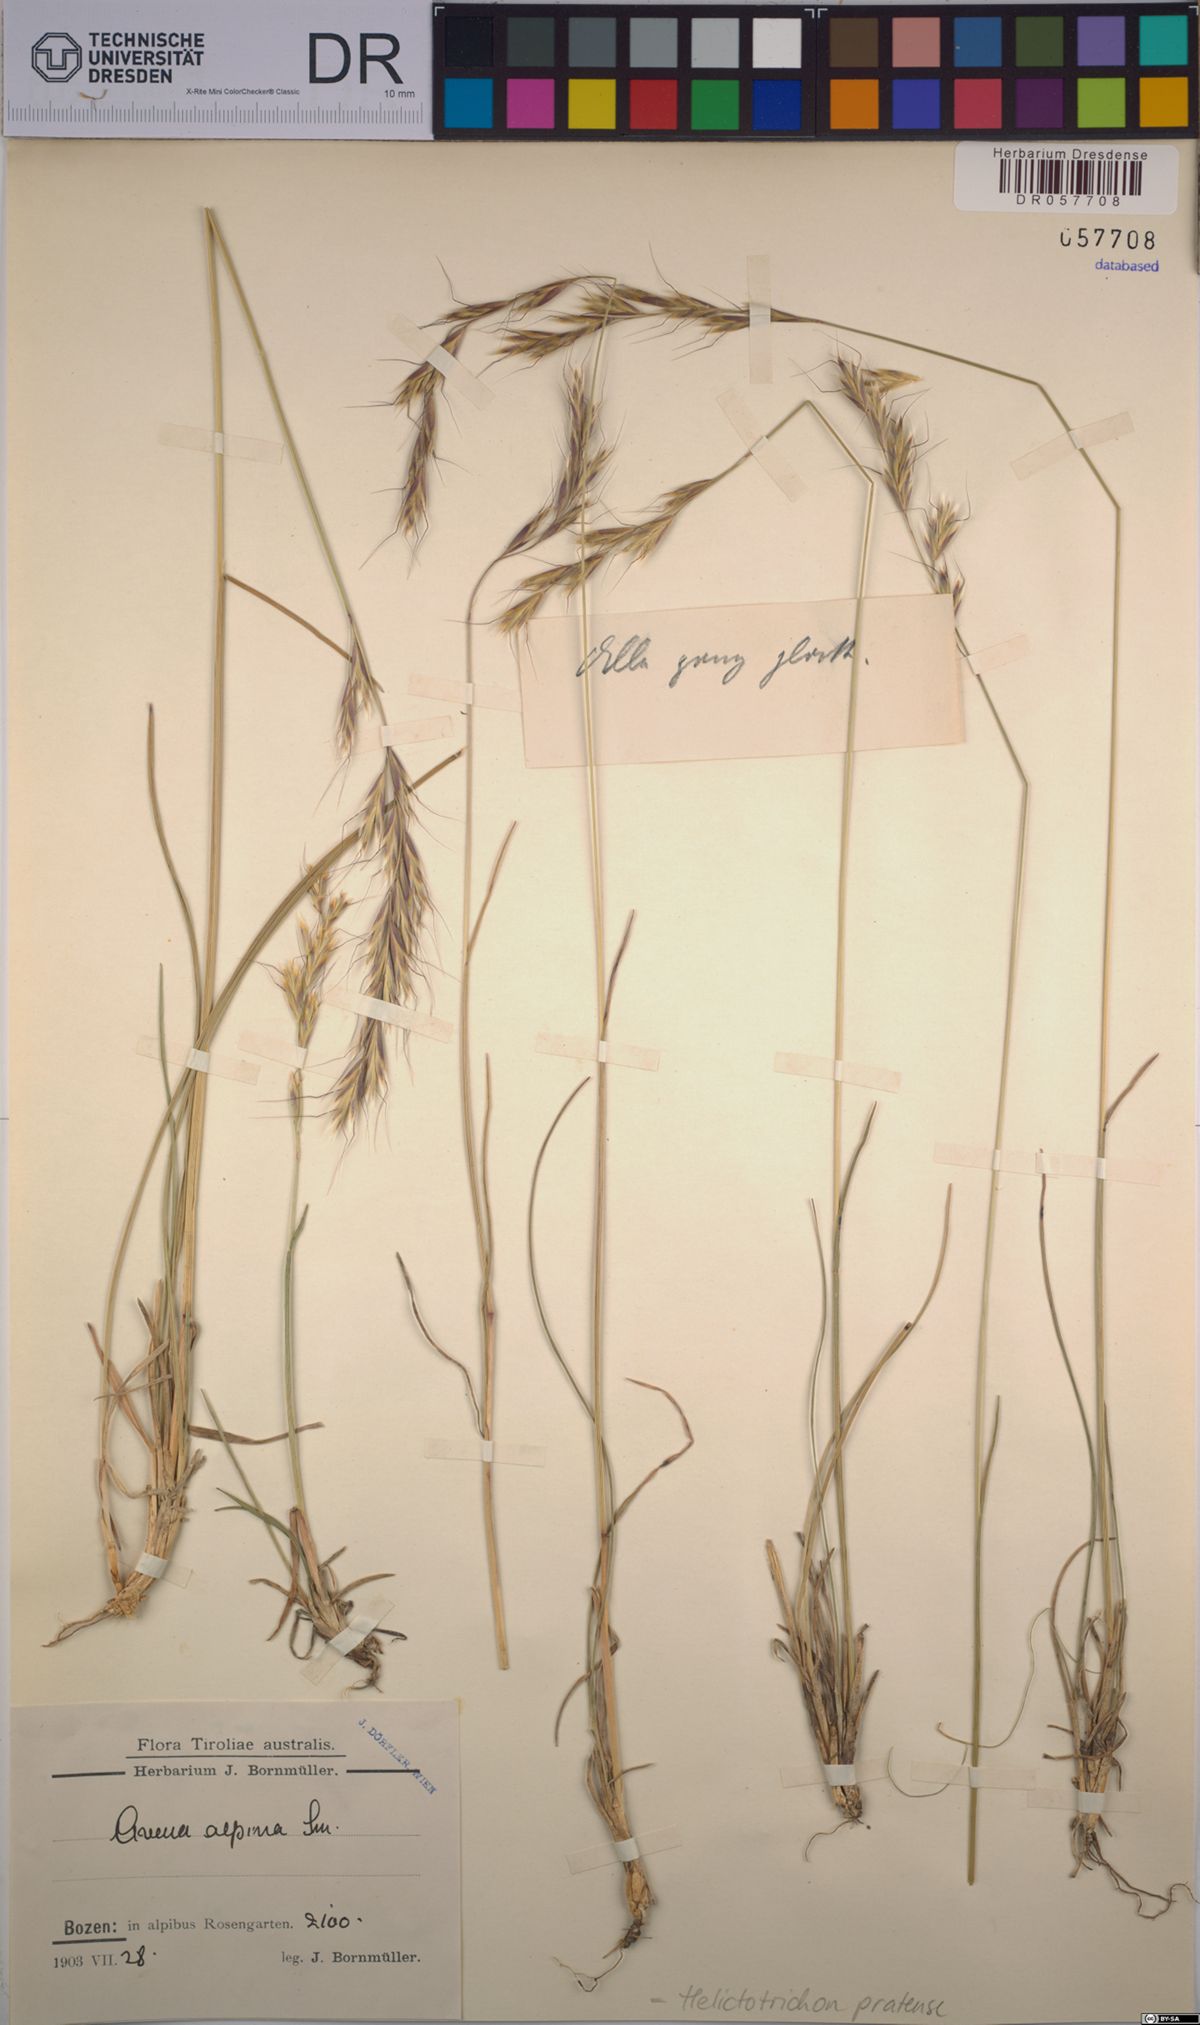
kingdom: Plantae
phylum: Tracheophyta
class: Liliopsida
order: Poales
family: Poaceae
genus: Helictochloa
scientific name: Helictochloa pratensis
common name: Meadow oat grass
